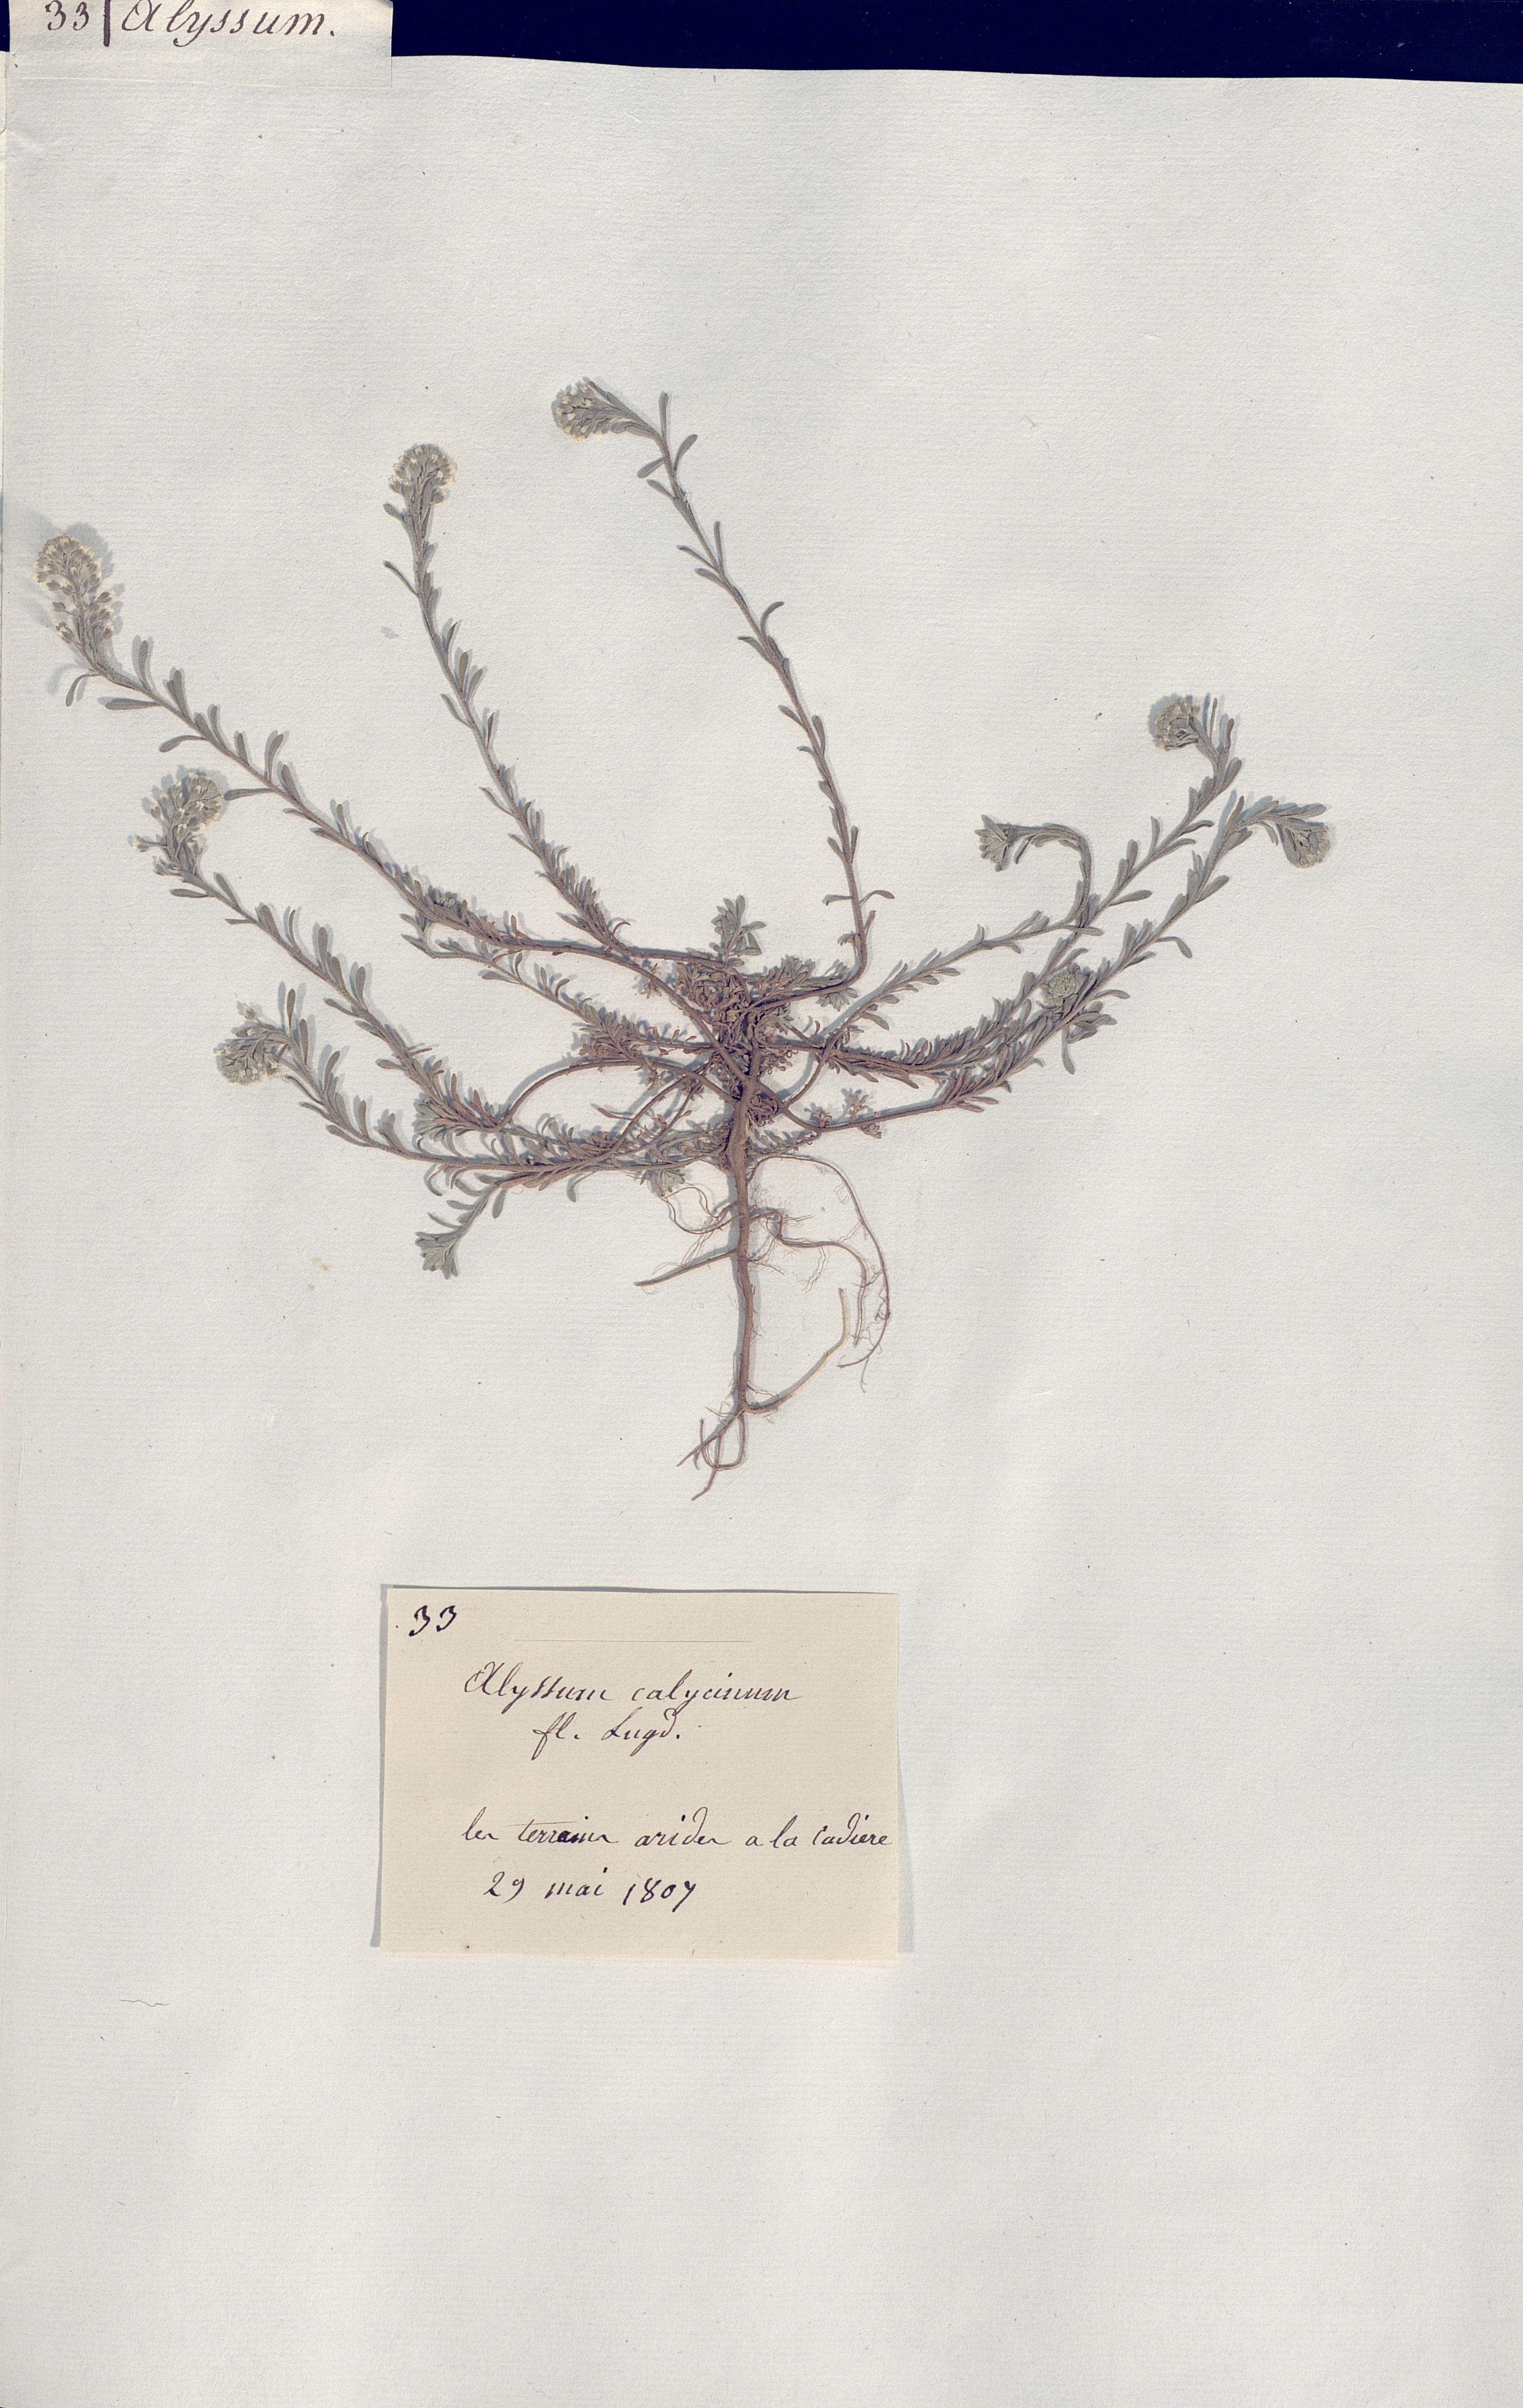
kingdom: Plantae
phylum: Tracheophyta
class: Magnoliopsida
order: Brassicales
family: Brassicaceae
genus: Alyssum
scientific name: Alyssum
